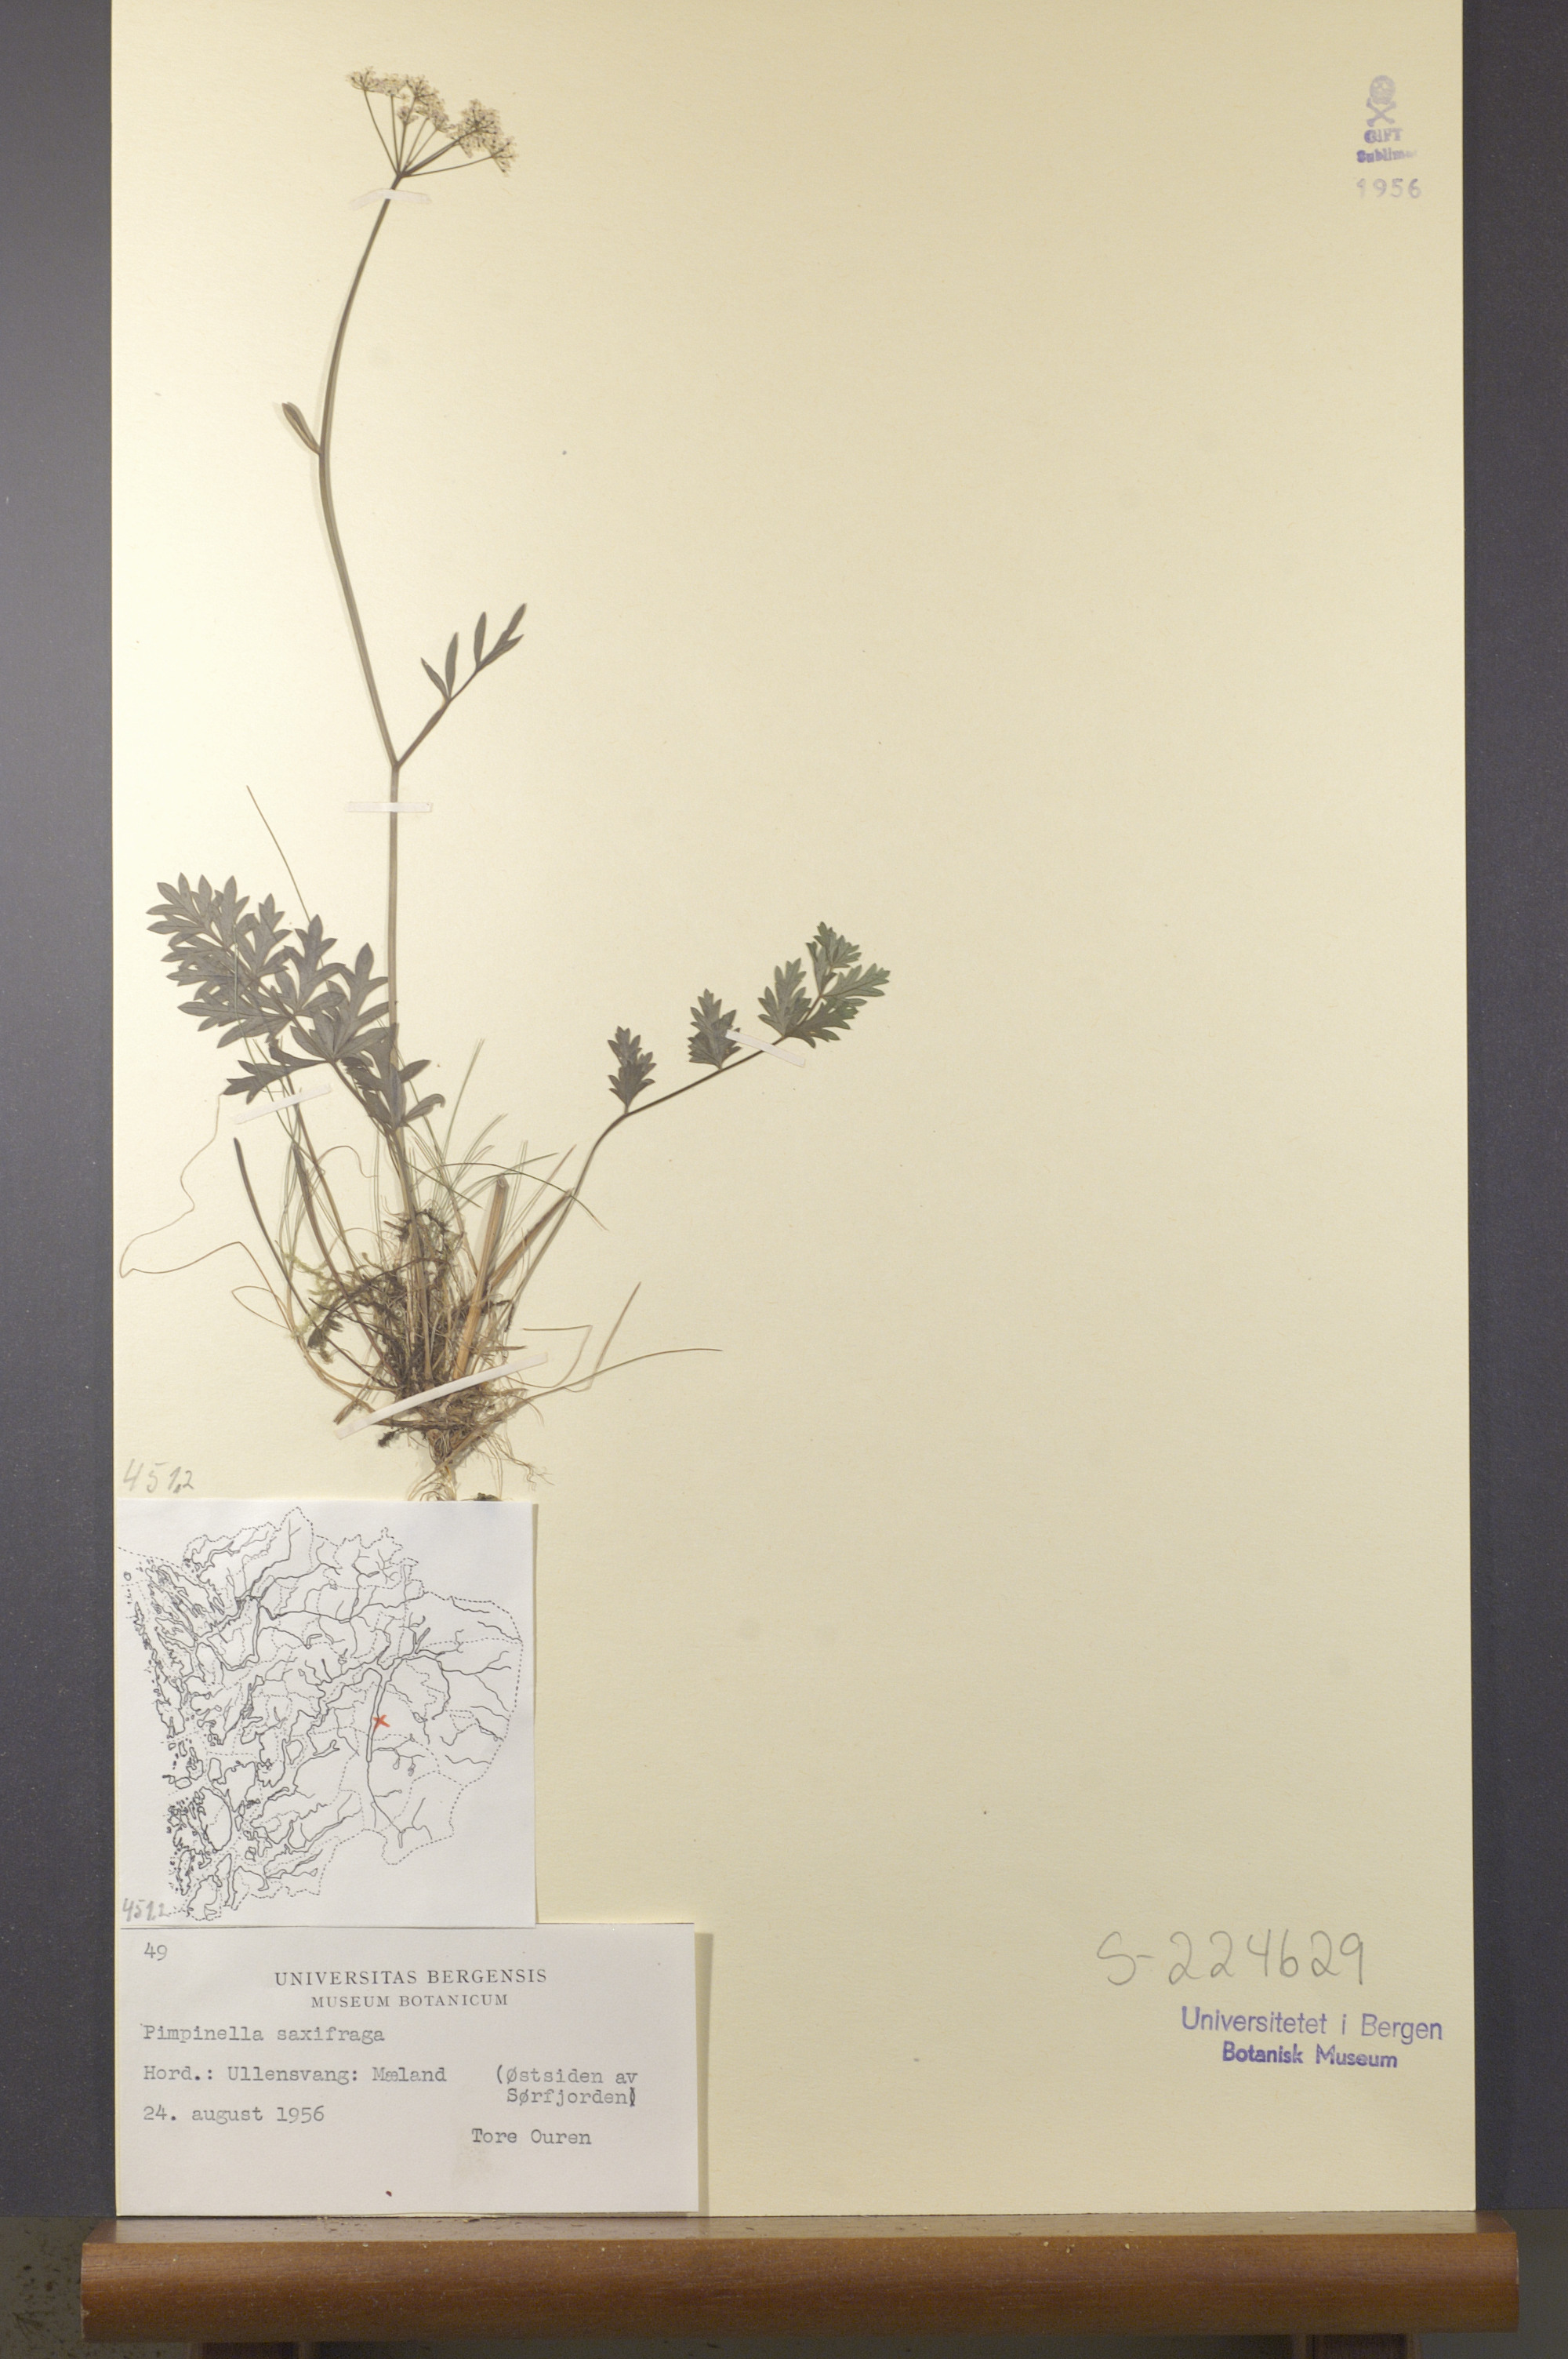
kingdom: Plantae
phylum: Tracheophyta
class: Magnoliopsida
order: Apiales
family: Apiaceae
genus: Pimpinella
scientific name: Pimpinella saxifraga
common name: Burnet-saxifrage
